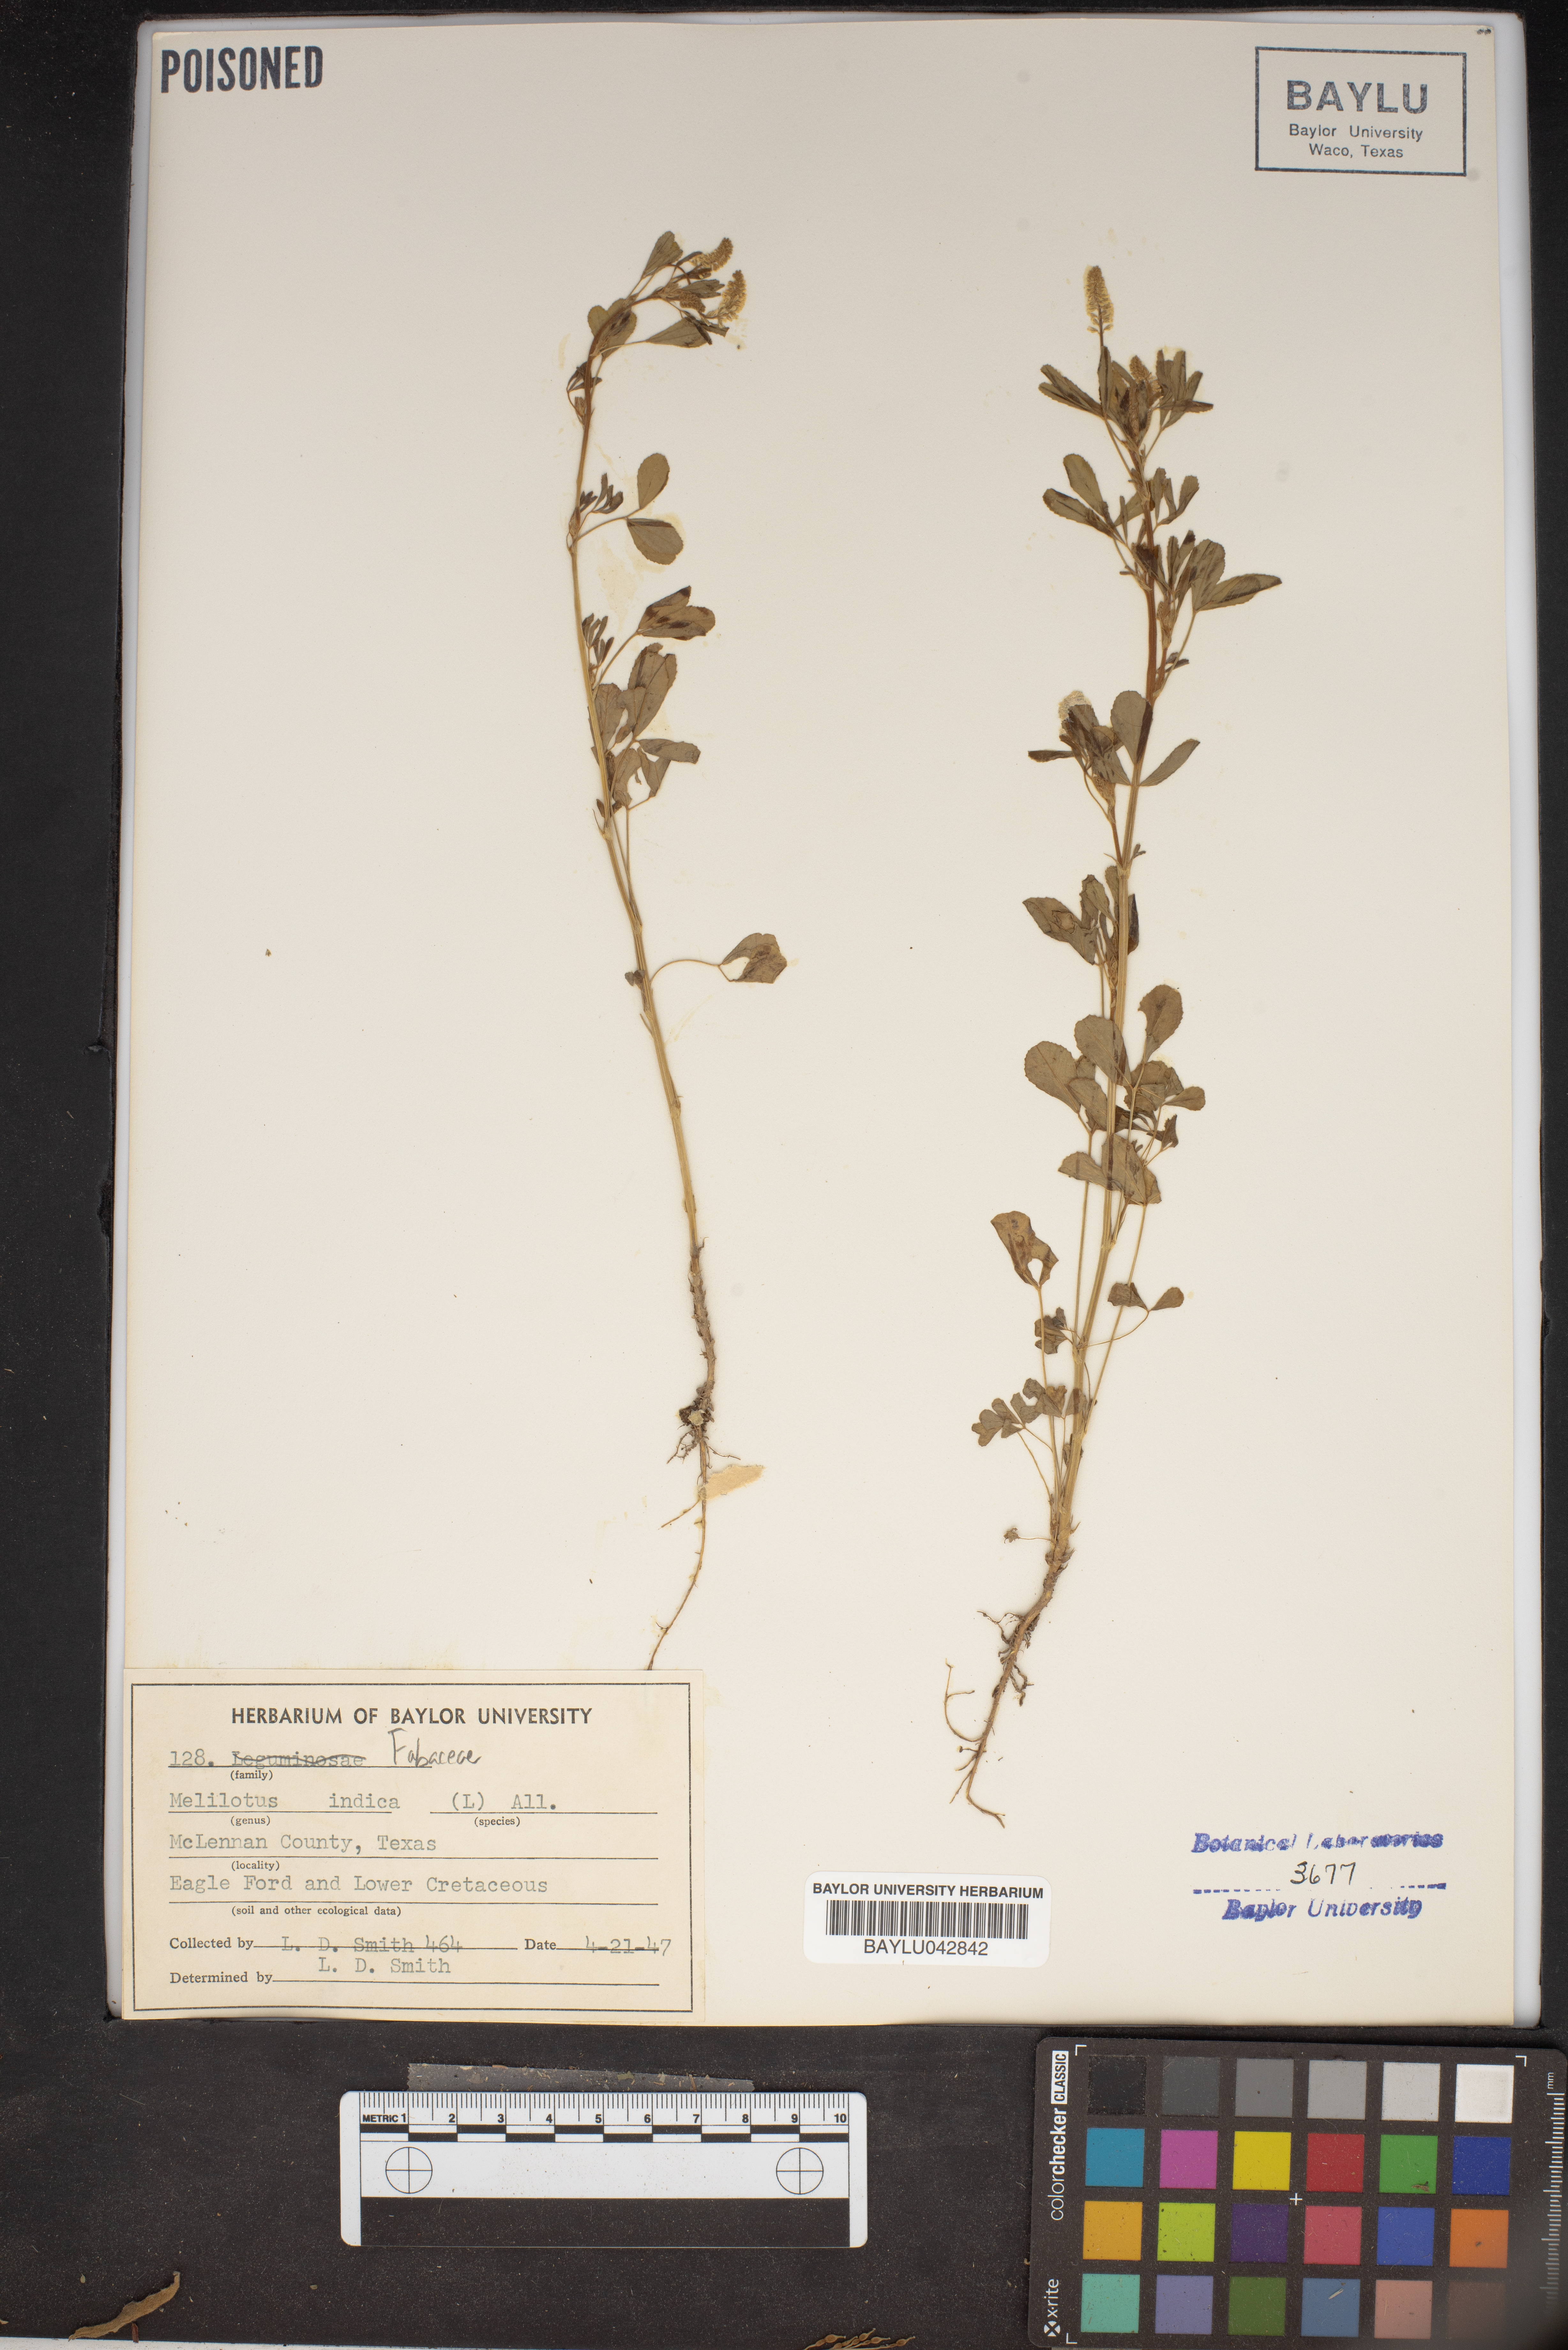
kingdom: Plantae
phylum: Tracheophyta
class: Magnoliopsida
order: Fabales
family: Fabaceae
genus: Melilotus
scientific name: Melilotus indicus
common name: Small melilot
